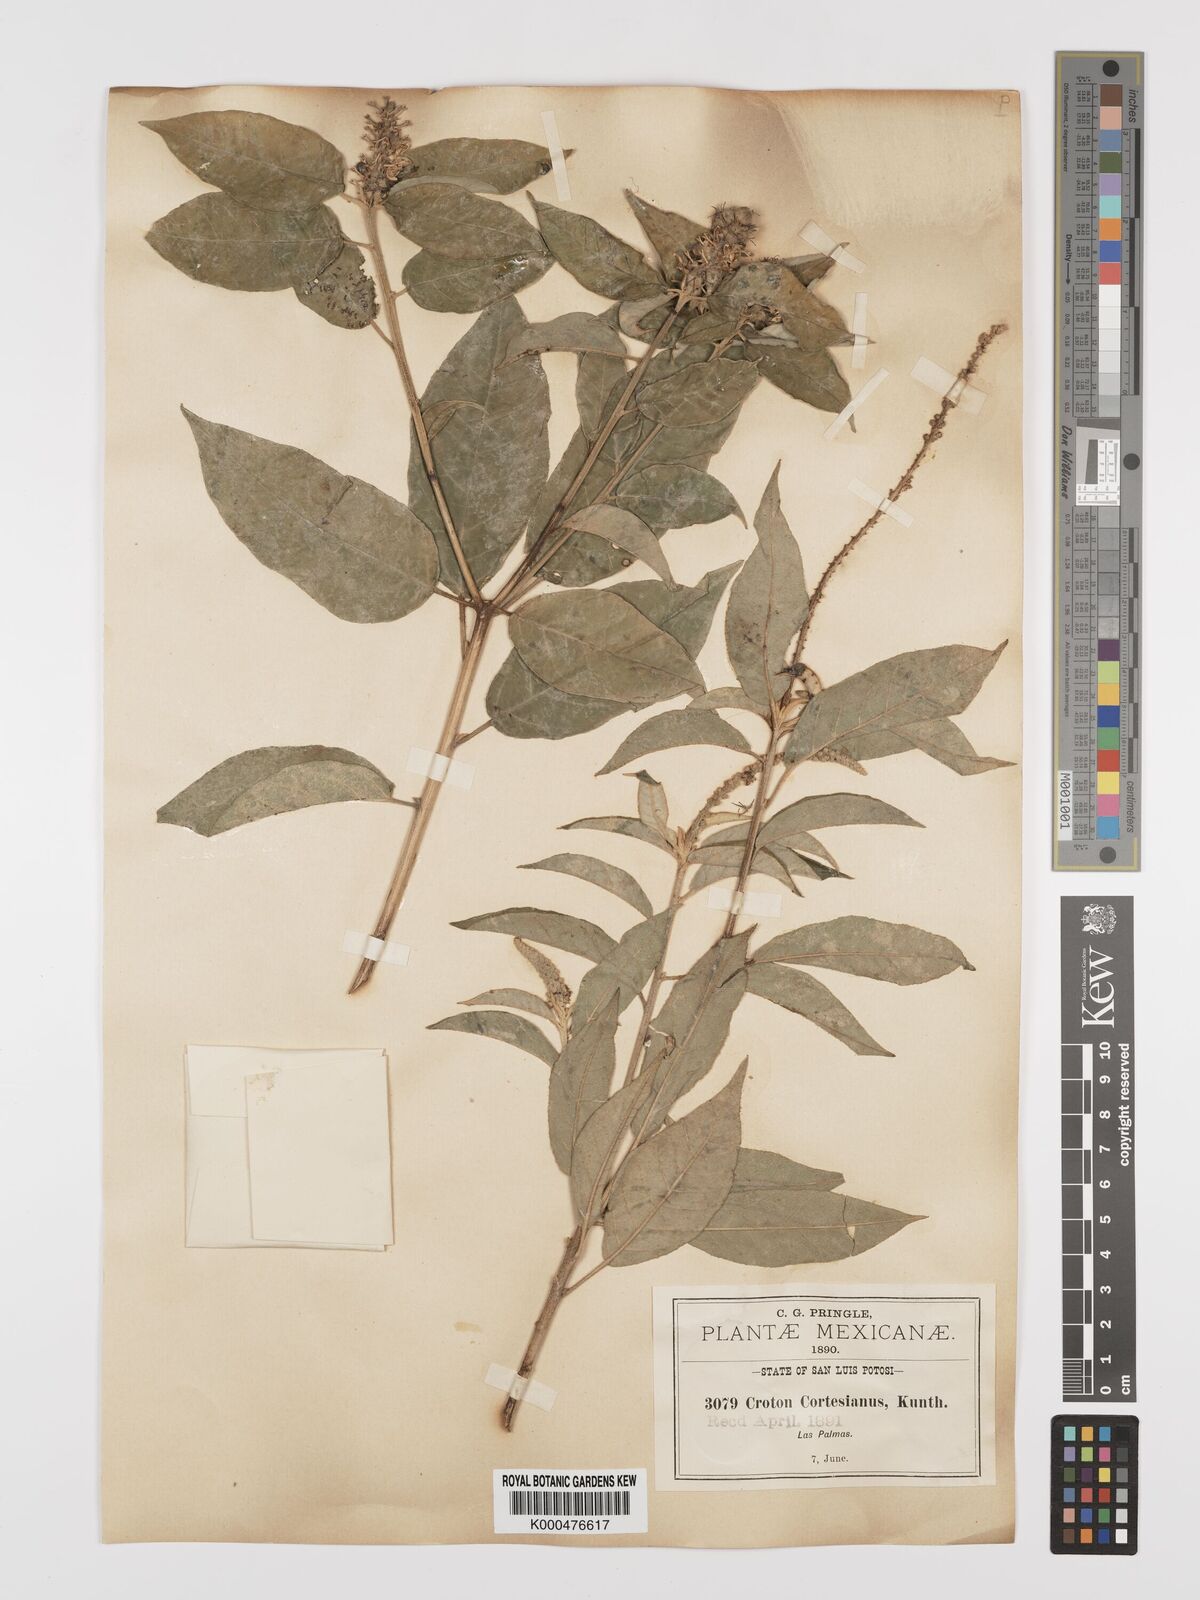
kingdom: Plantae
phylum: Tracheophyta
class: Magnoliopsida
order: Malpighiales
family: Euphorbiaceae
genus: Croton
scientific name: Croton cortesianus
